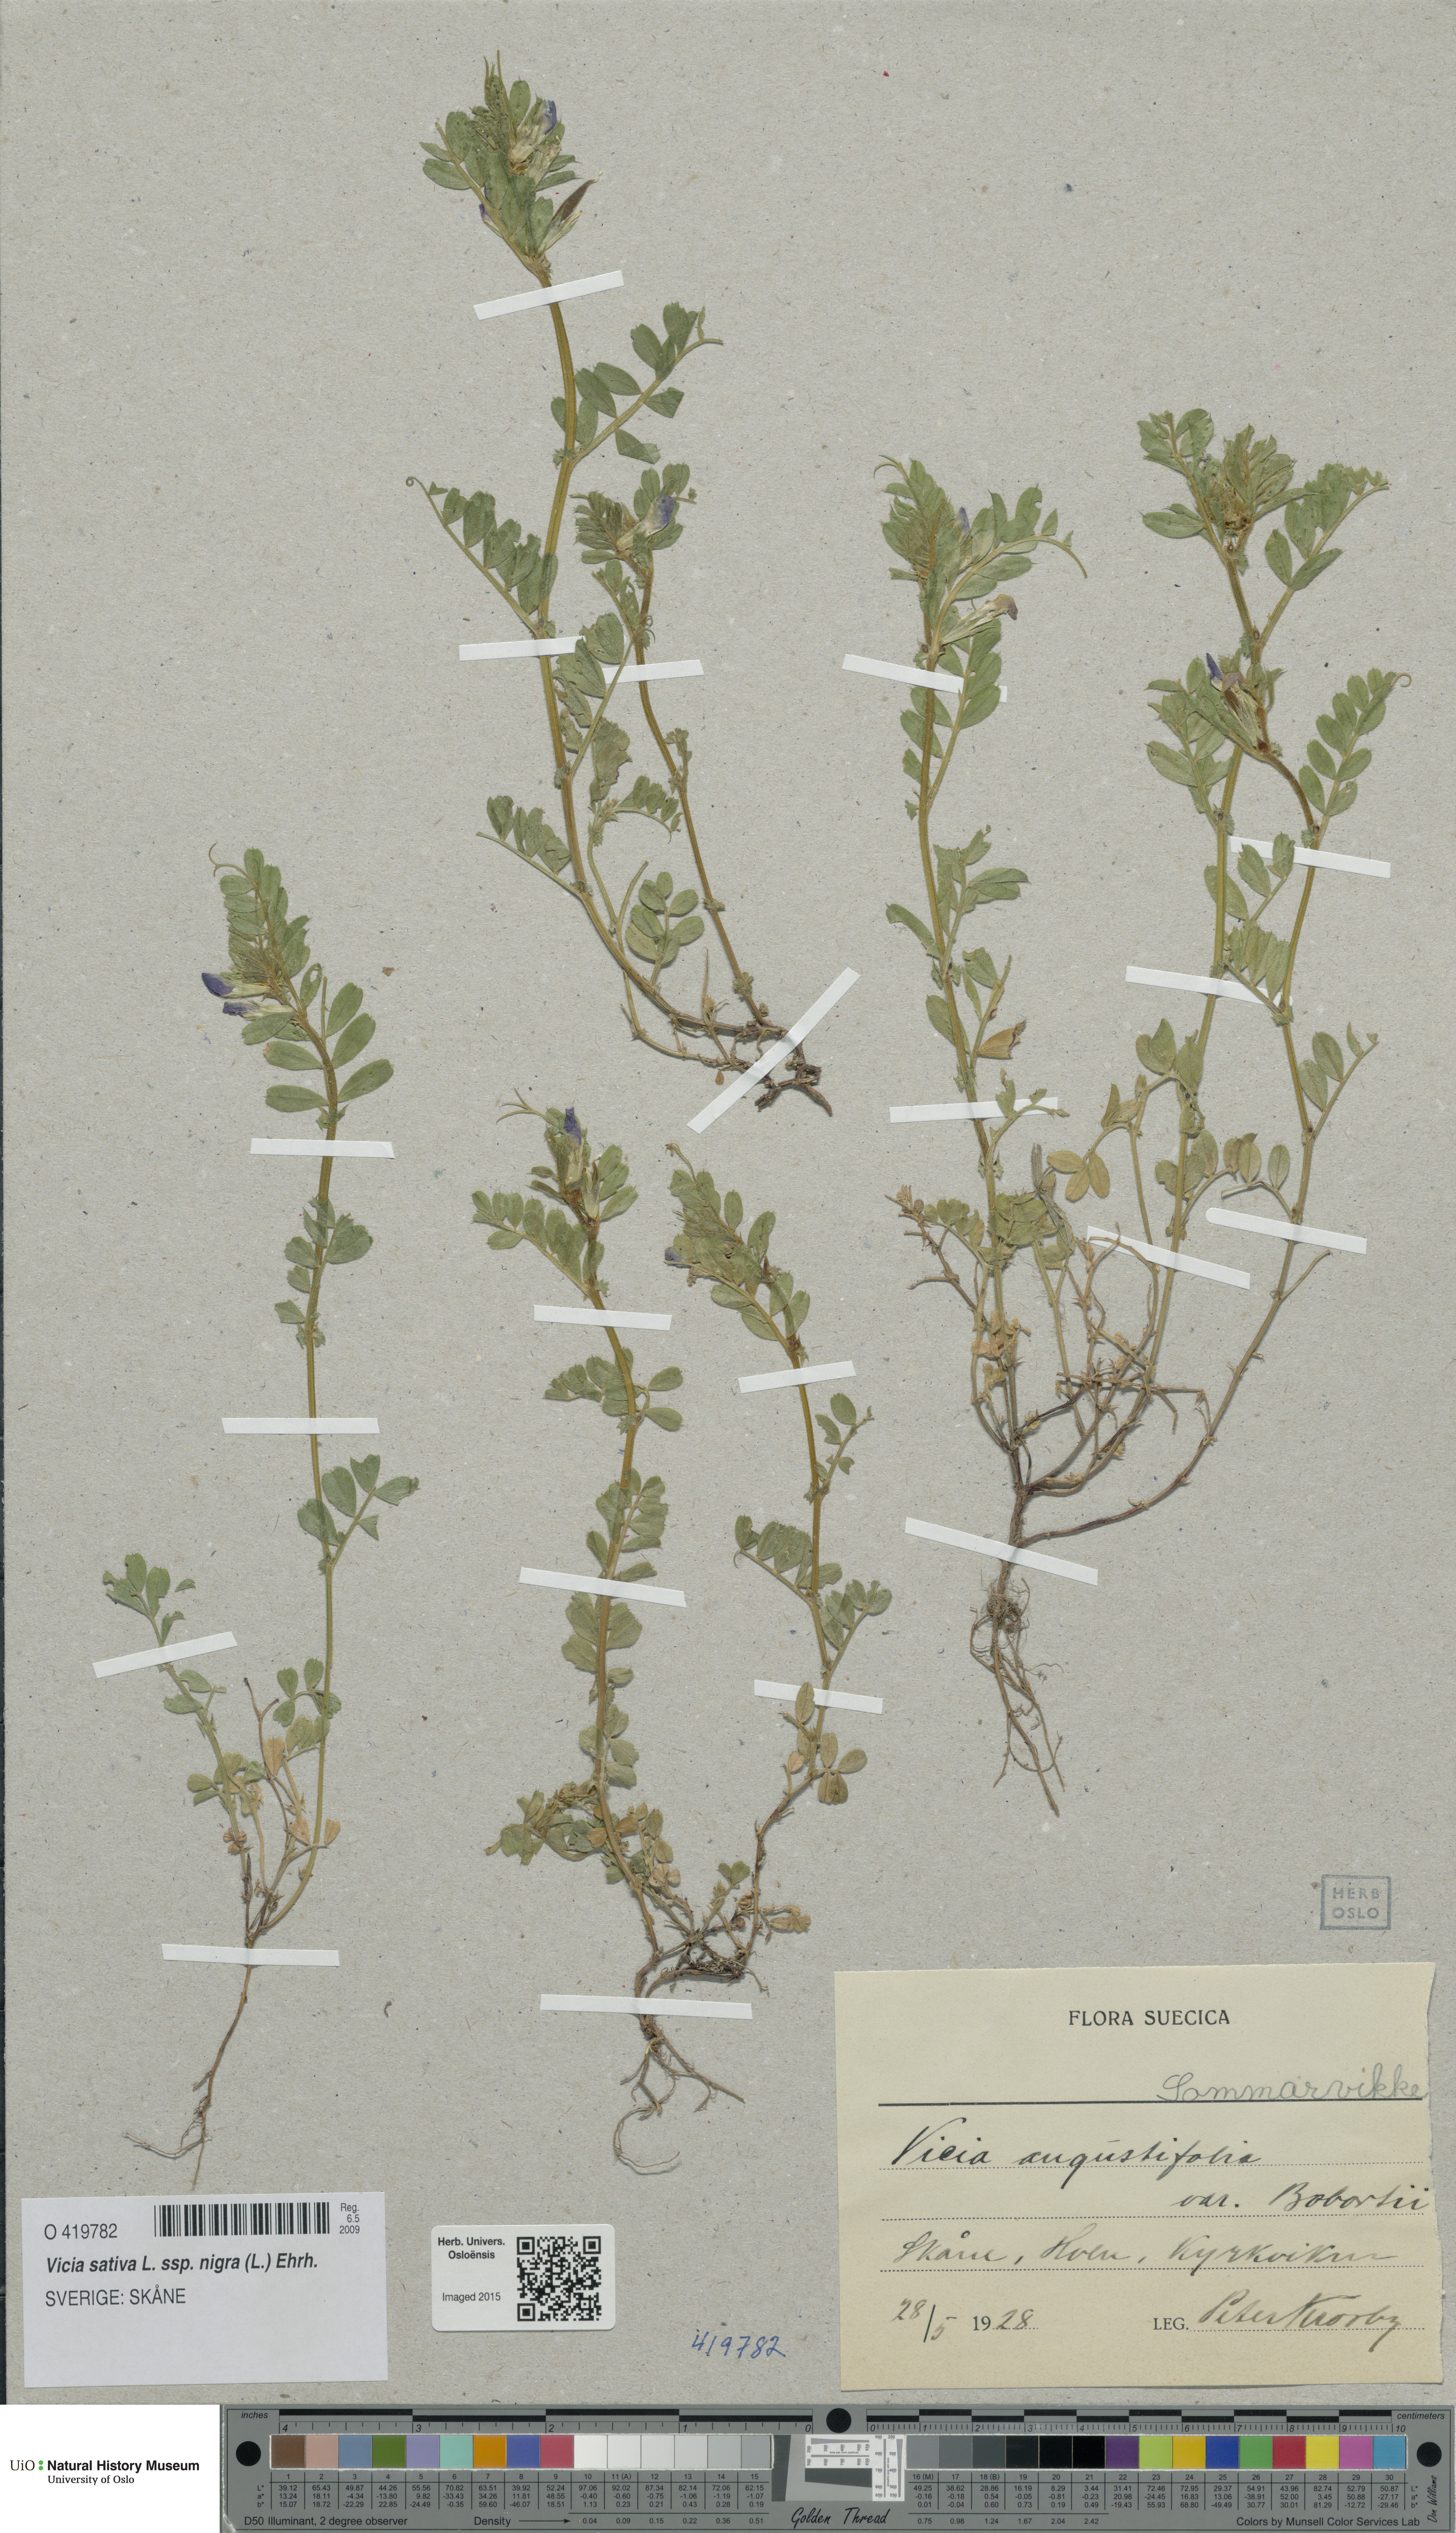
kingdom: Plantae
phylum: Tracheophyta
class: Magnoliopsida
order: Fabales
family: Fabaceae
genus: Vicia
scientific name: Vicia sativa
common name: Garden vetch
